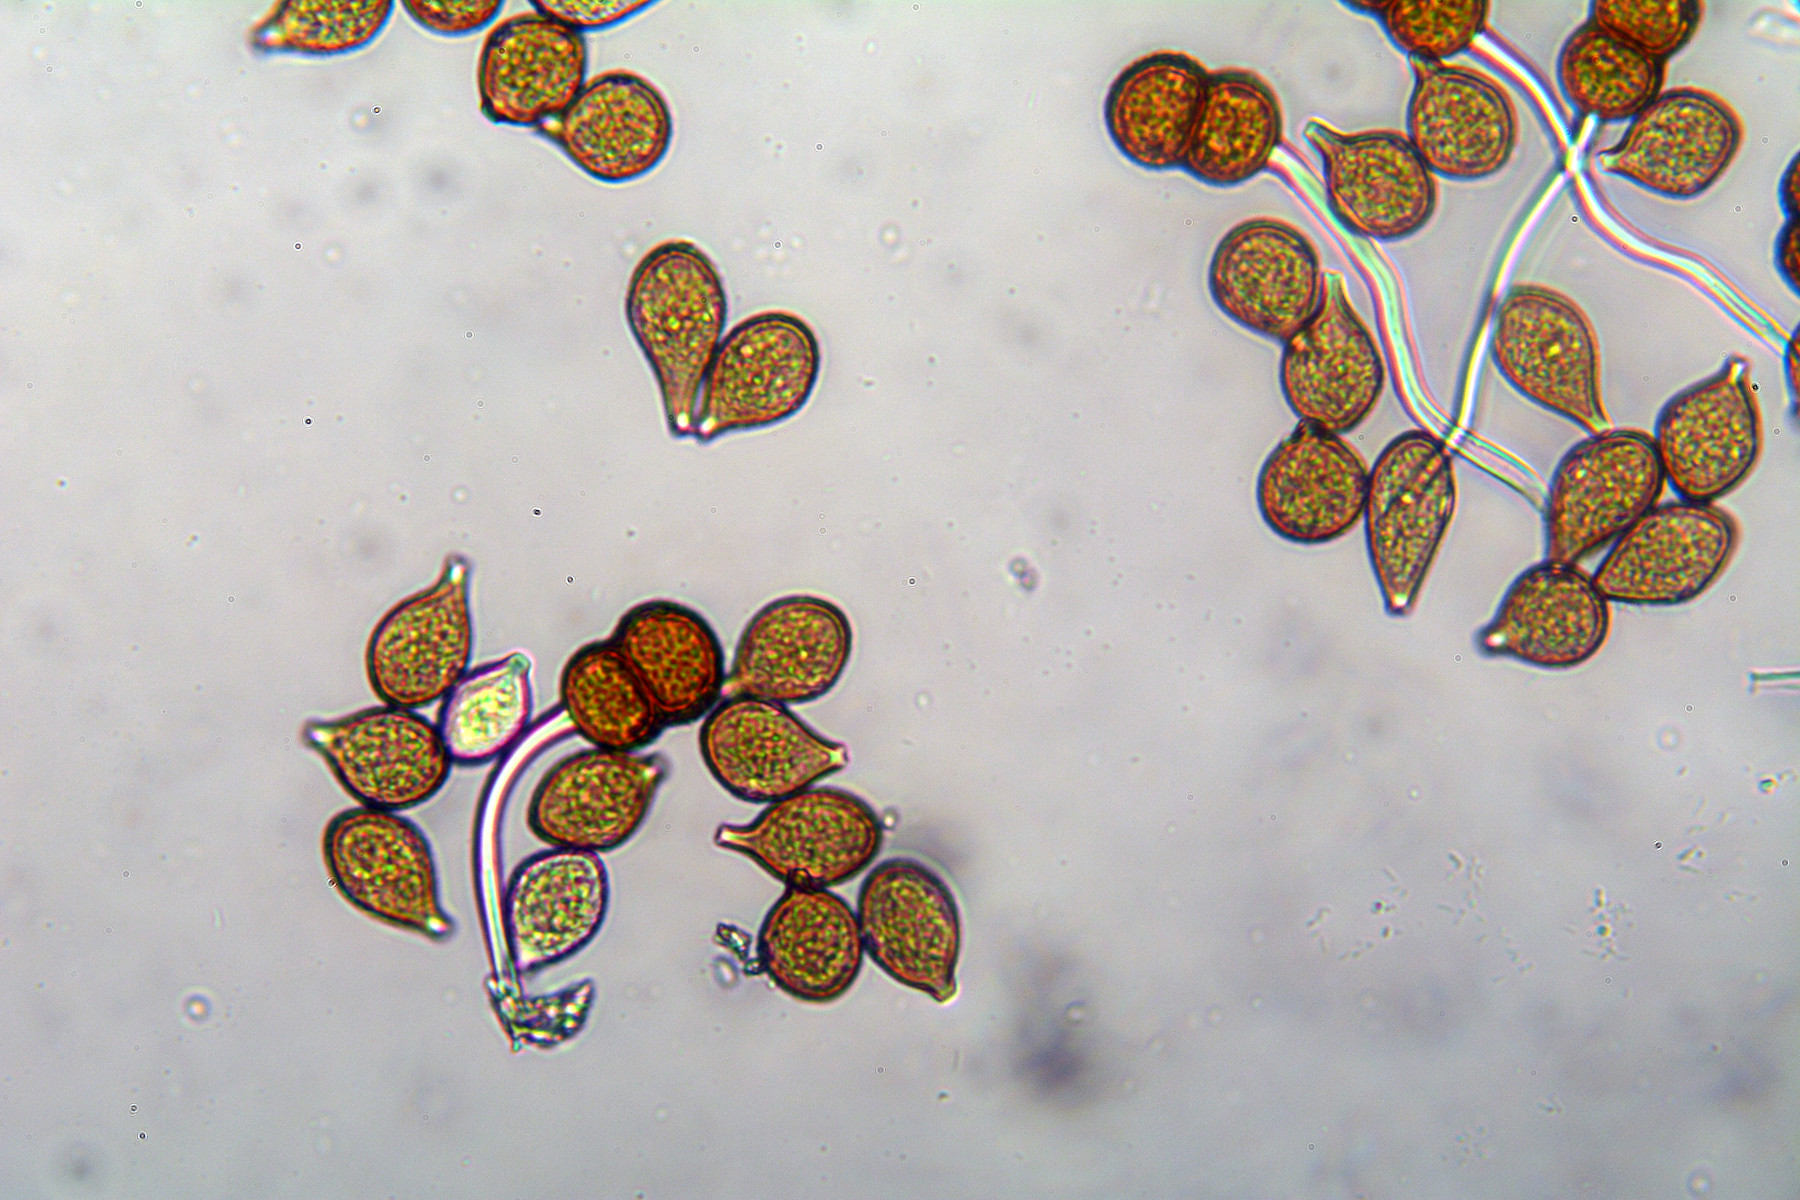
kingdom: Fungi
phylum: Basidiomycota
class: Pucciniomycetes
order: Pucciniales
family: Pucciniaceae
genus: Cumminsiella
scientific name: Cumminsiella mirabilissima
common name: mahonierust
